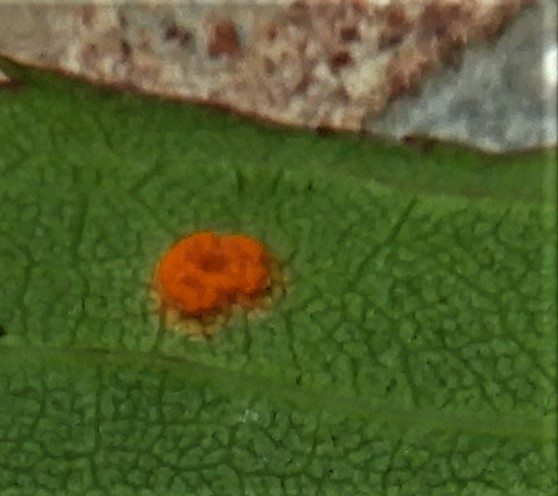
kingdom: Fungi
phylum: Basidiomycota
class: Pucciniomycetes
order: Pucciniales
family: Phragmidiaceae
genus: Phragmidium
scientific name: Phragmidium
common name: flercellerust
